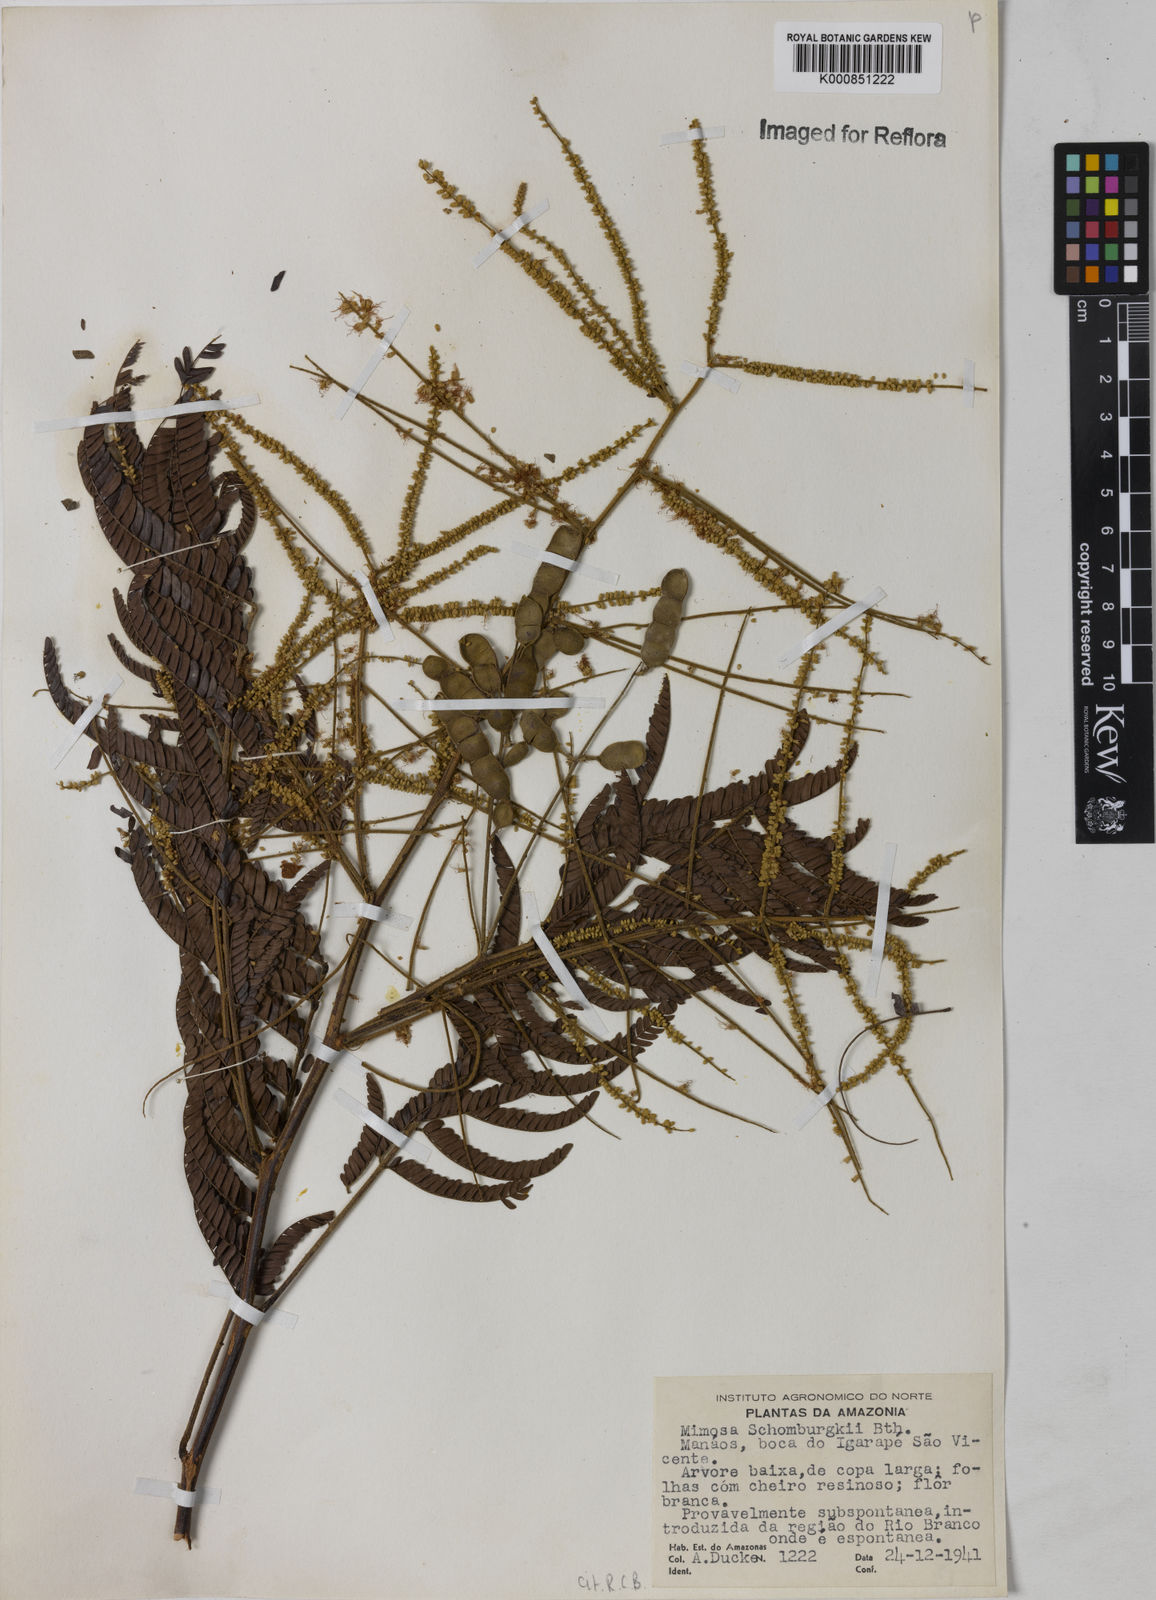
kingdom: Plantae
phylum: Tracheophyta
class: Magnoliopsida
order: Fabales
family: Fabaceae
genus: Mimosa
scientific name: Mimosa schomburgkii
